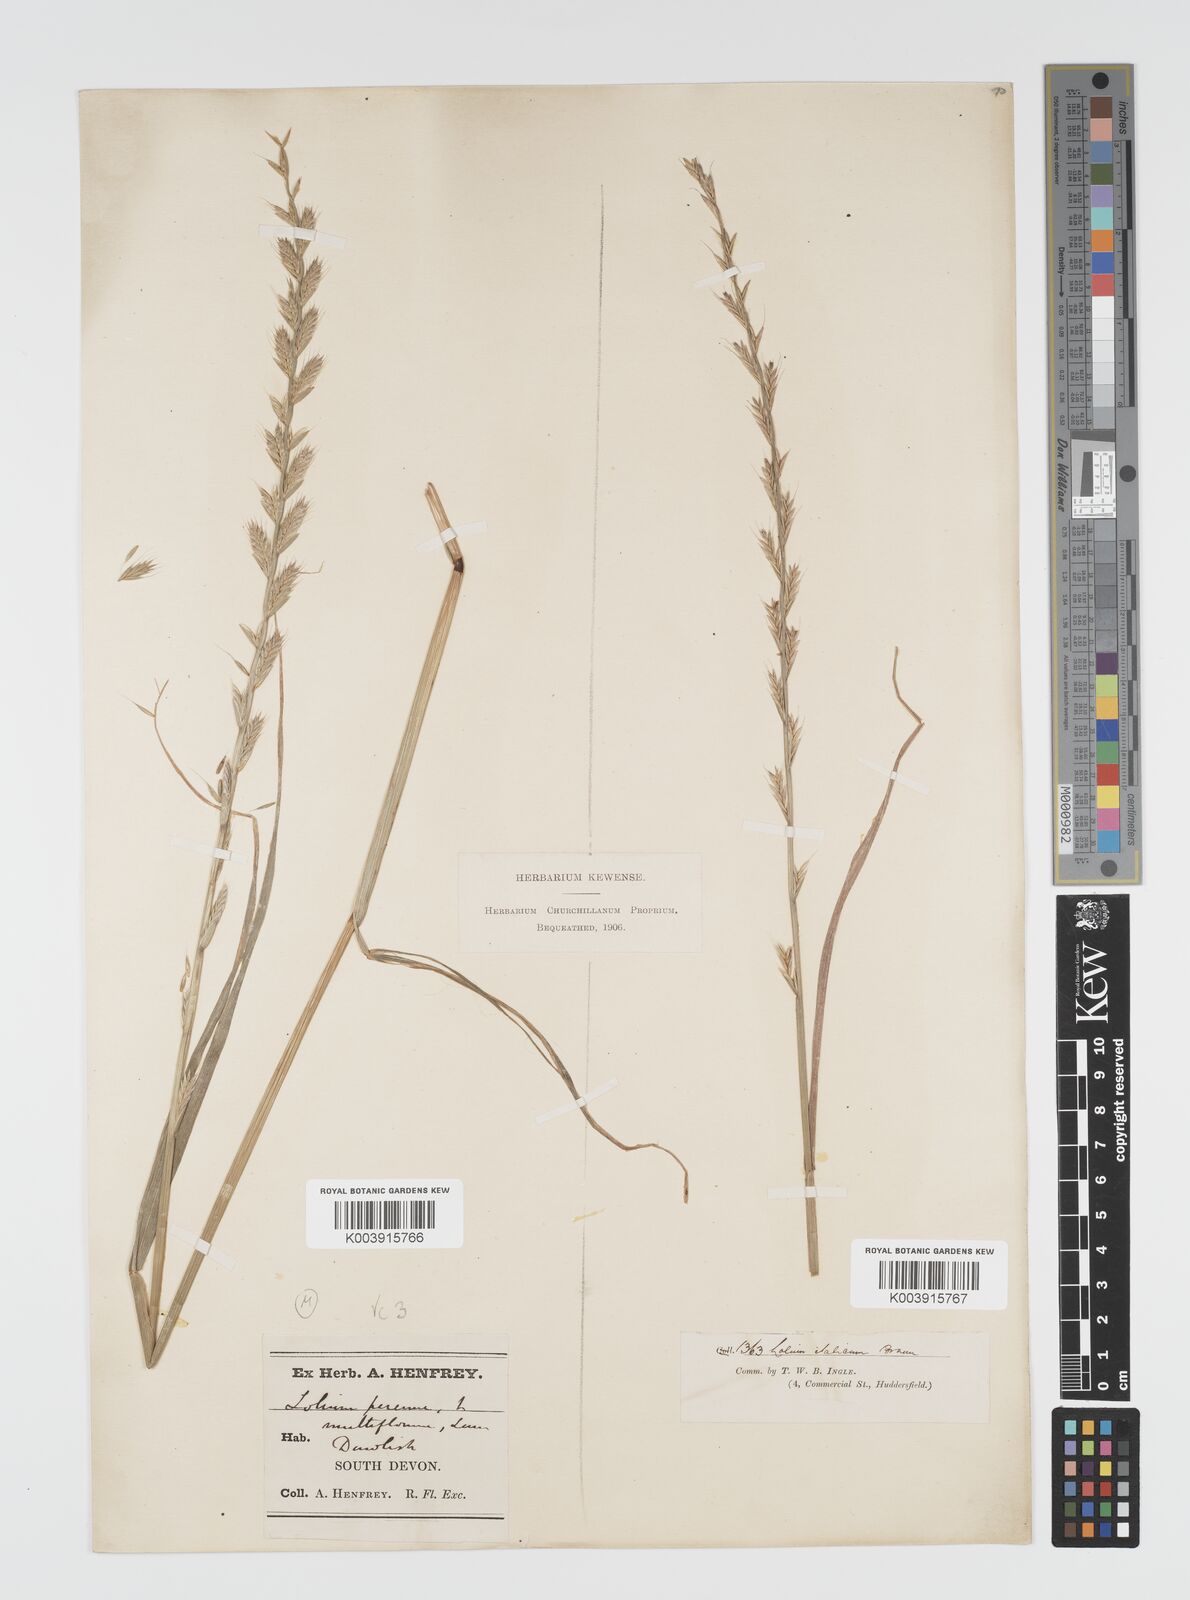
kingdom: Plantae
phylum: Tracheophyta
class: Liliopsida
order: Poales
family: Poaceae
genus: Lolium
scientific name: Lolium multiflorum
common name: Annual ryegrass
